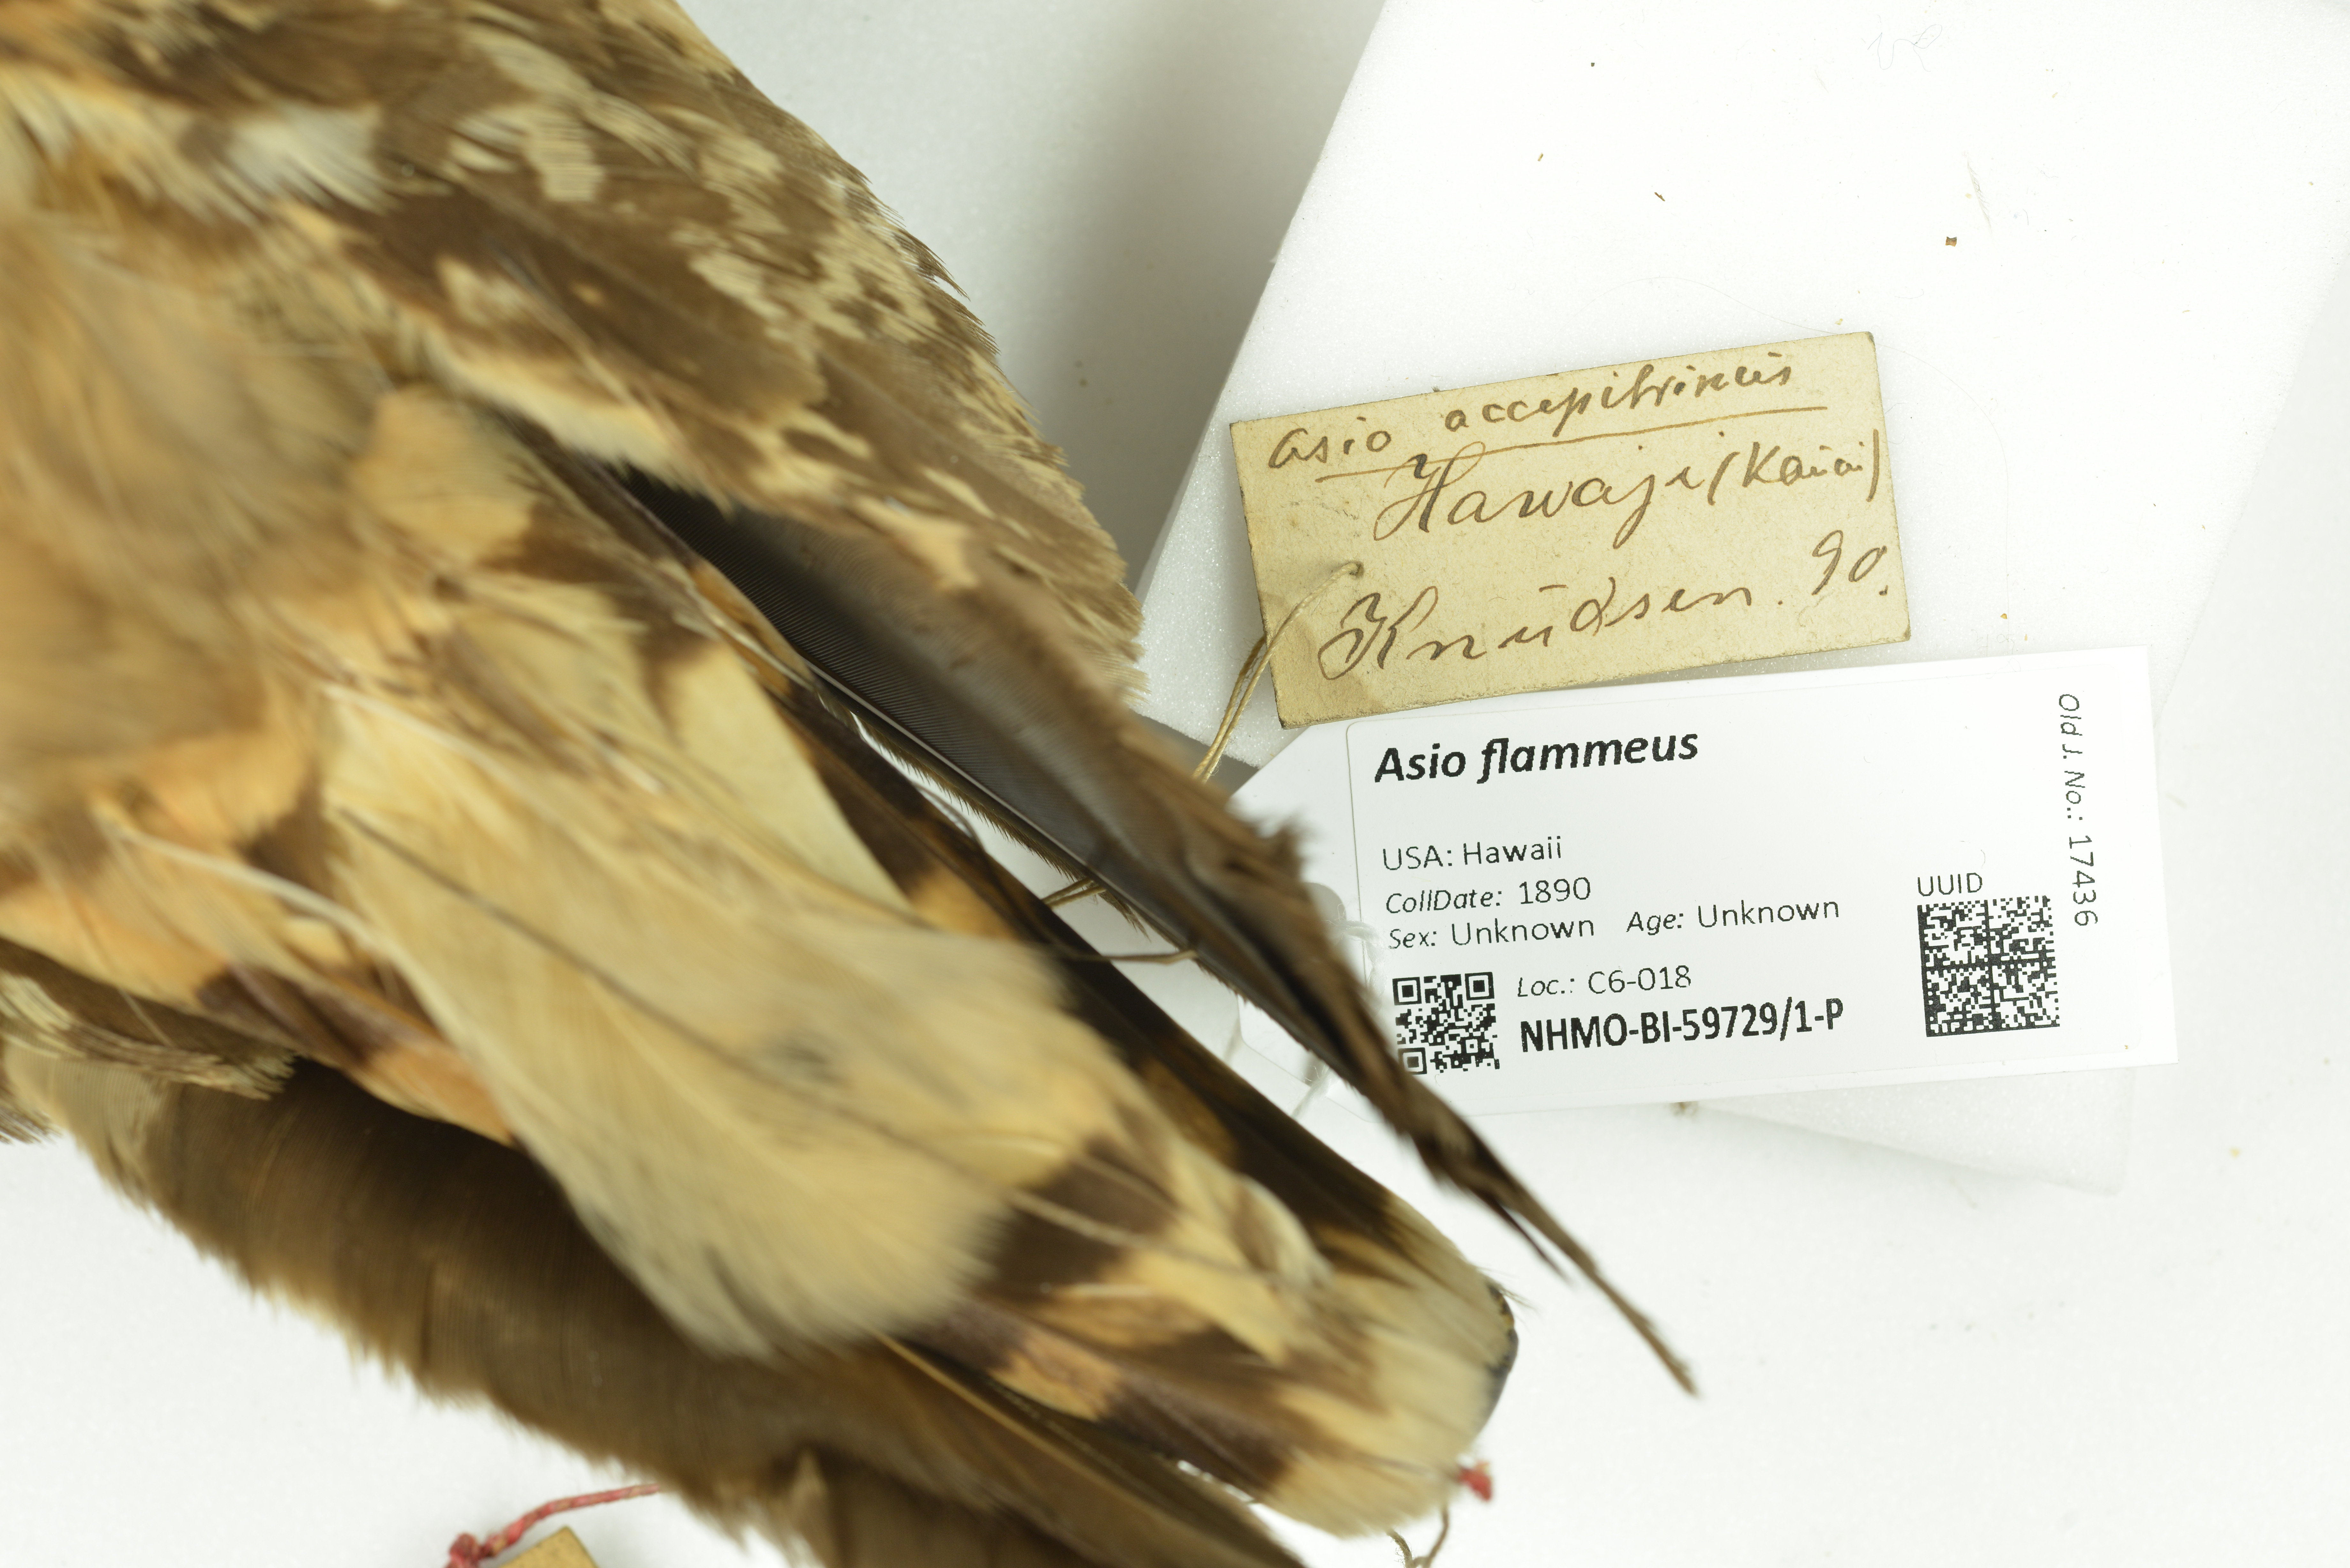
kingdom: Animalia
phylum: Chordata
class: Aves
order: Strigiformes
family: Strigidae
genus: Asio
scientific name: Asio flammeus
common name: Short-eared owl
